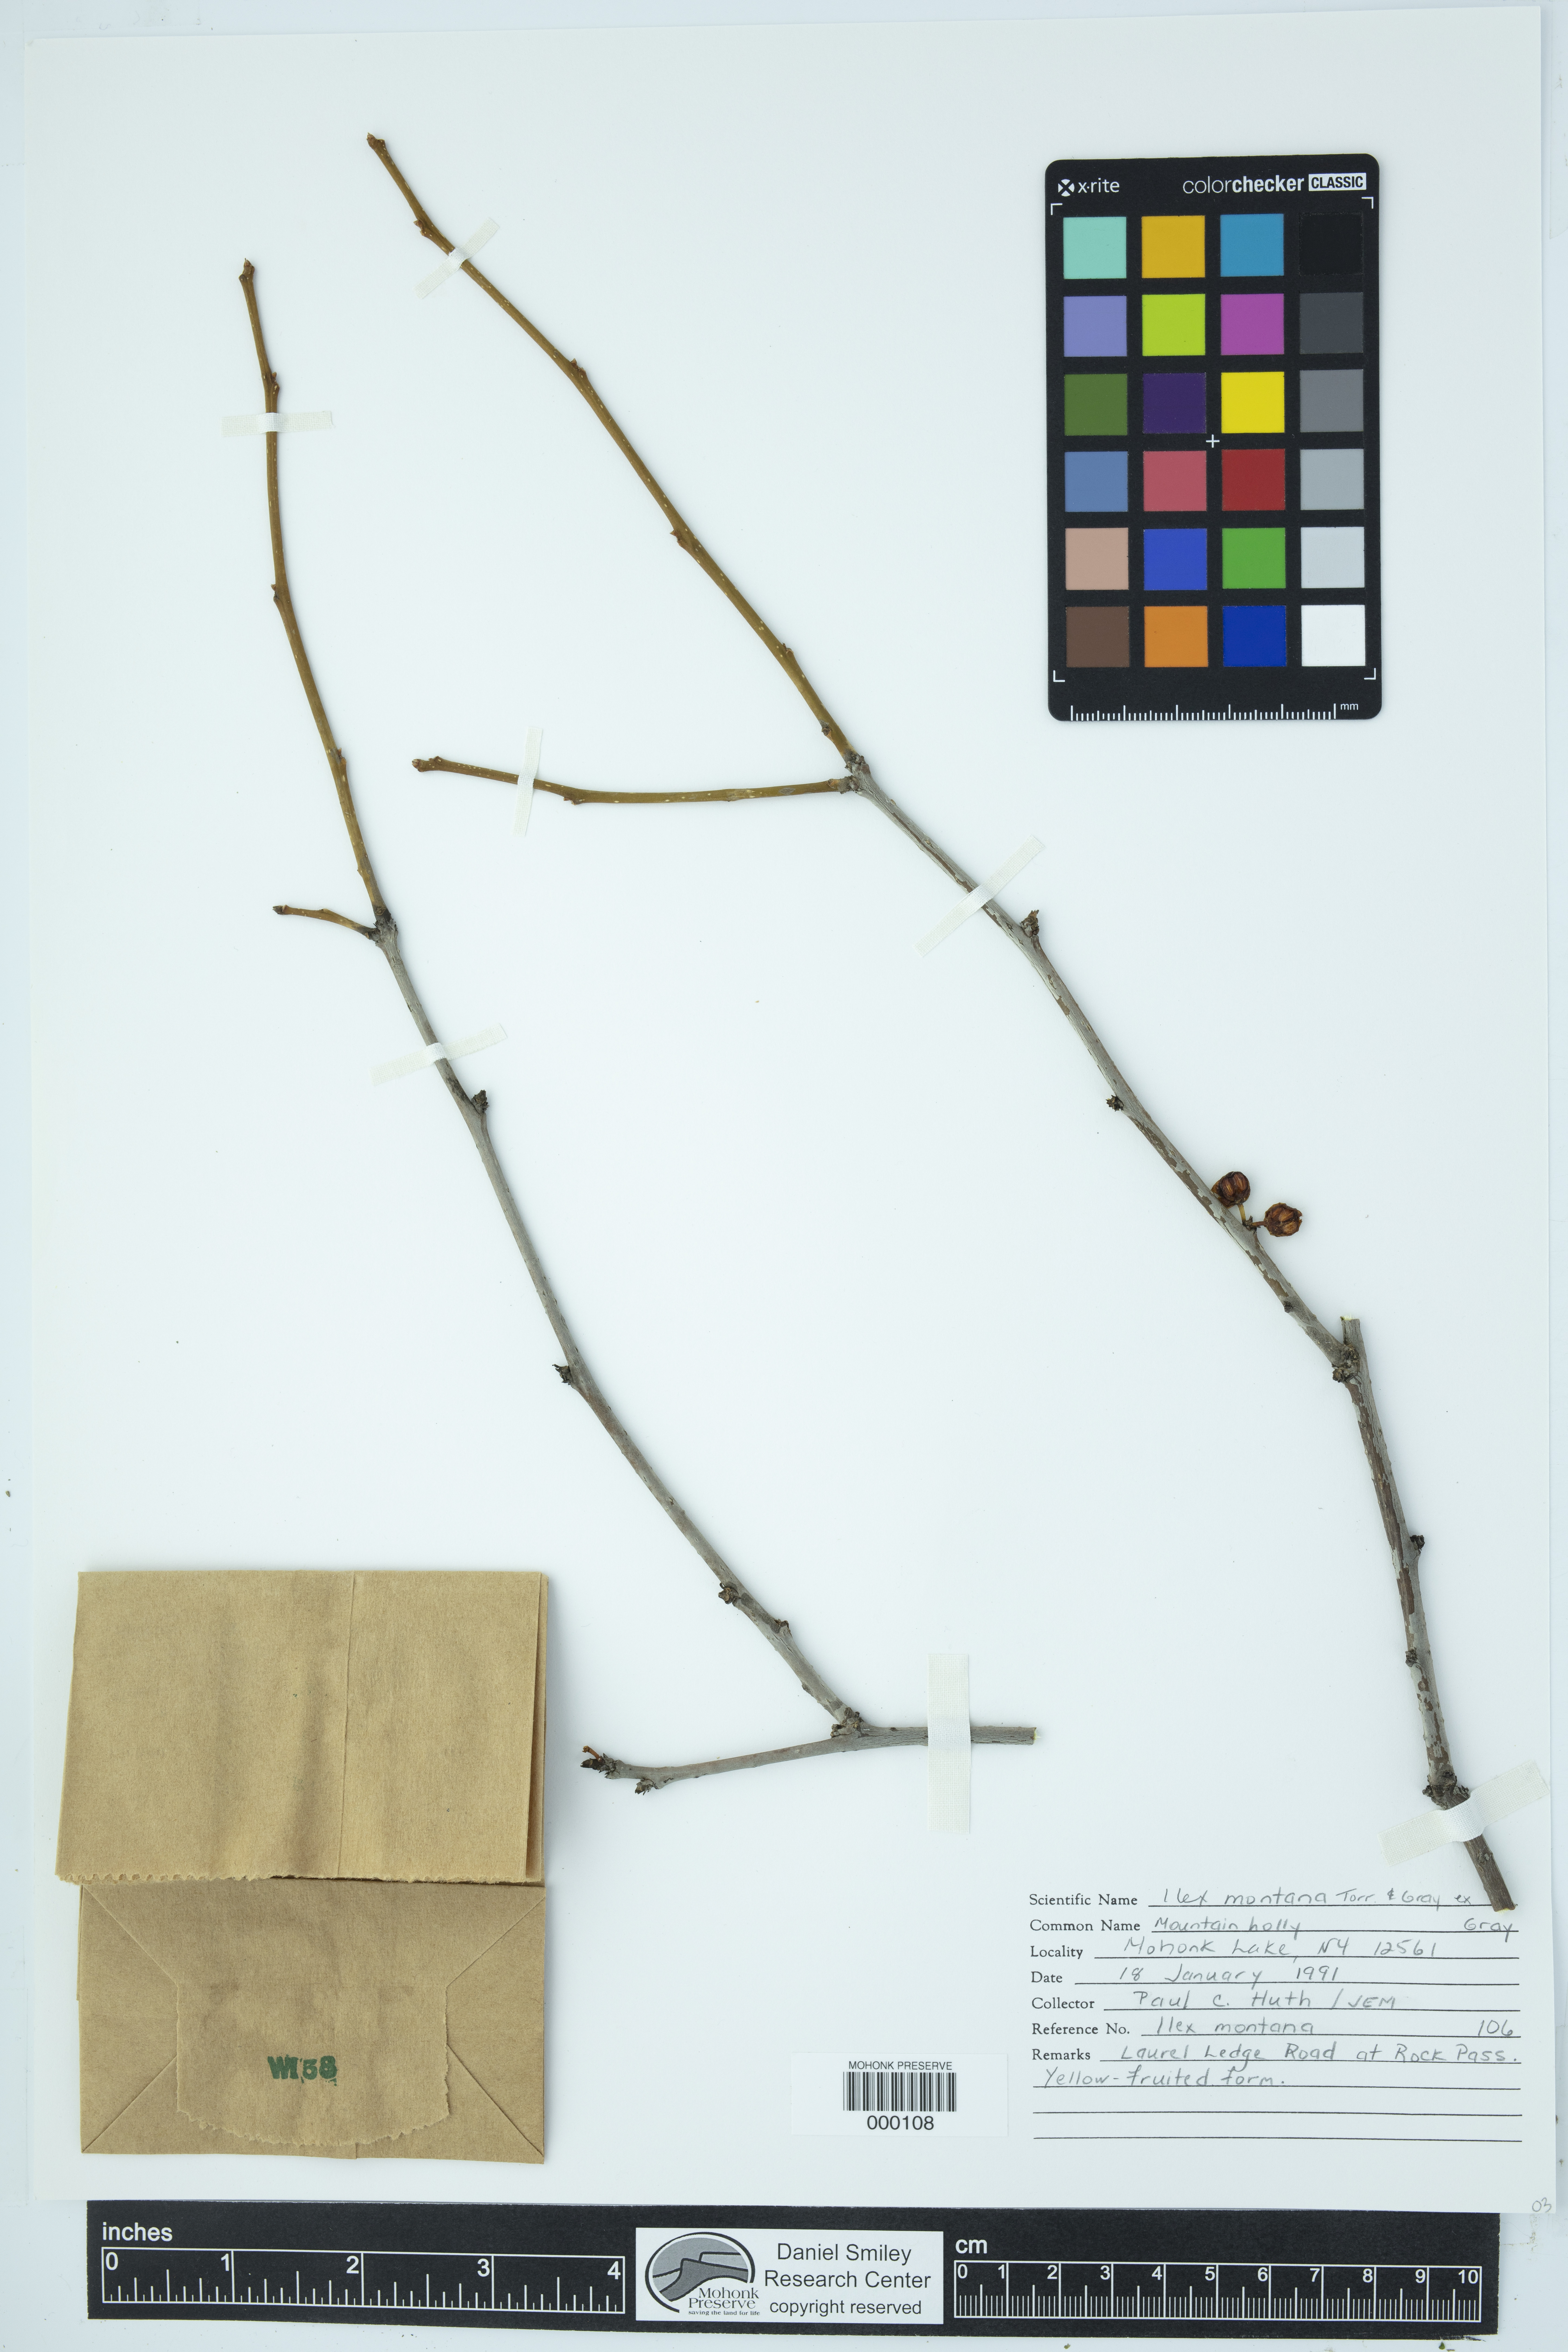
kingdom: Plantae
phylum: Tracheophyta
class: Magnoliopsida
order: Aquifoliales
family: Aquifoliaceae
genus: Ilex
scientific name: Ilex montana
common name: Mountain winterberry
